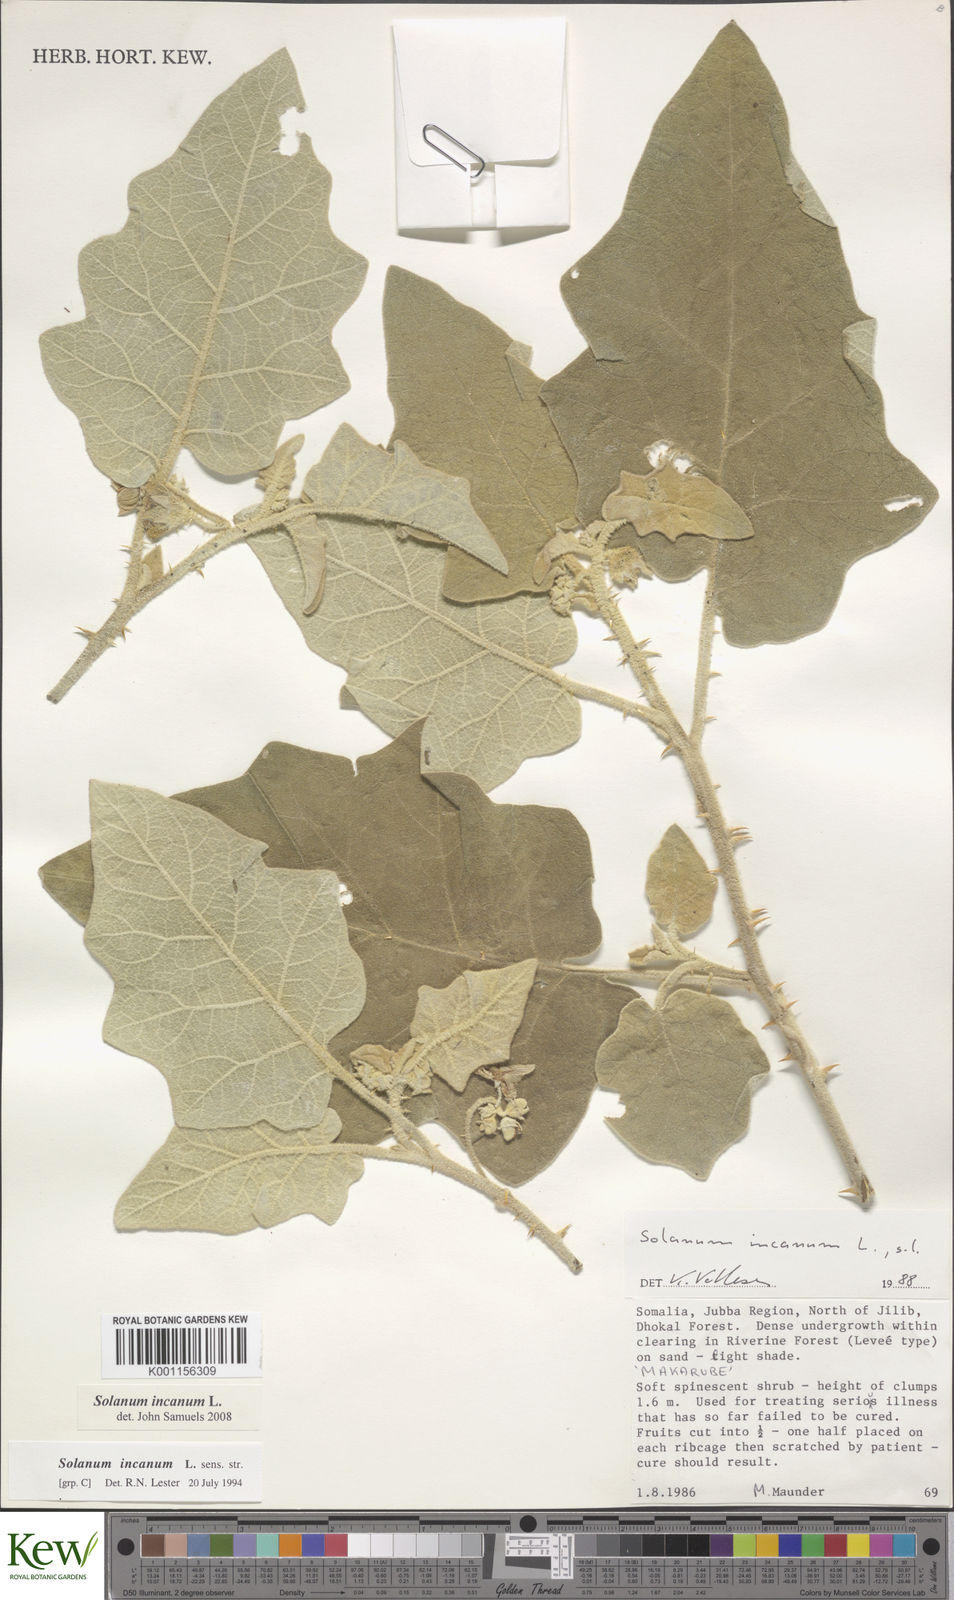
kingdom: Plantae
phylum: Tracheophyta
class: Magnoliopsida
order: Solanales
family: Solanaceae
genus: Solanum
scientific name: Solanum incanum
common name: Bitter apple
